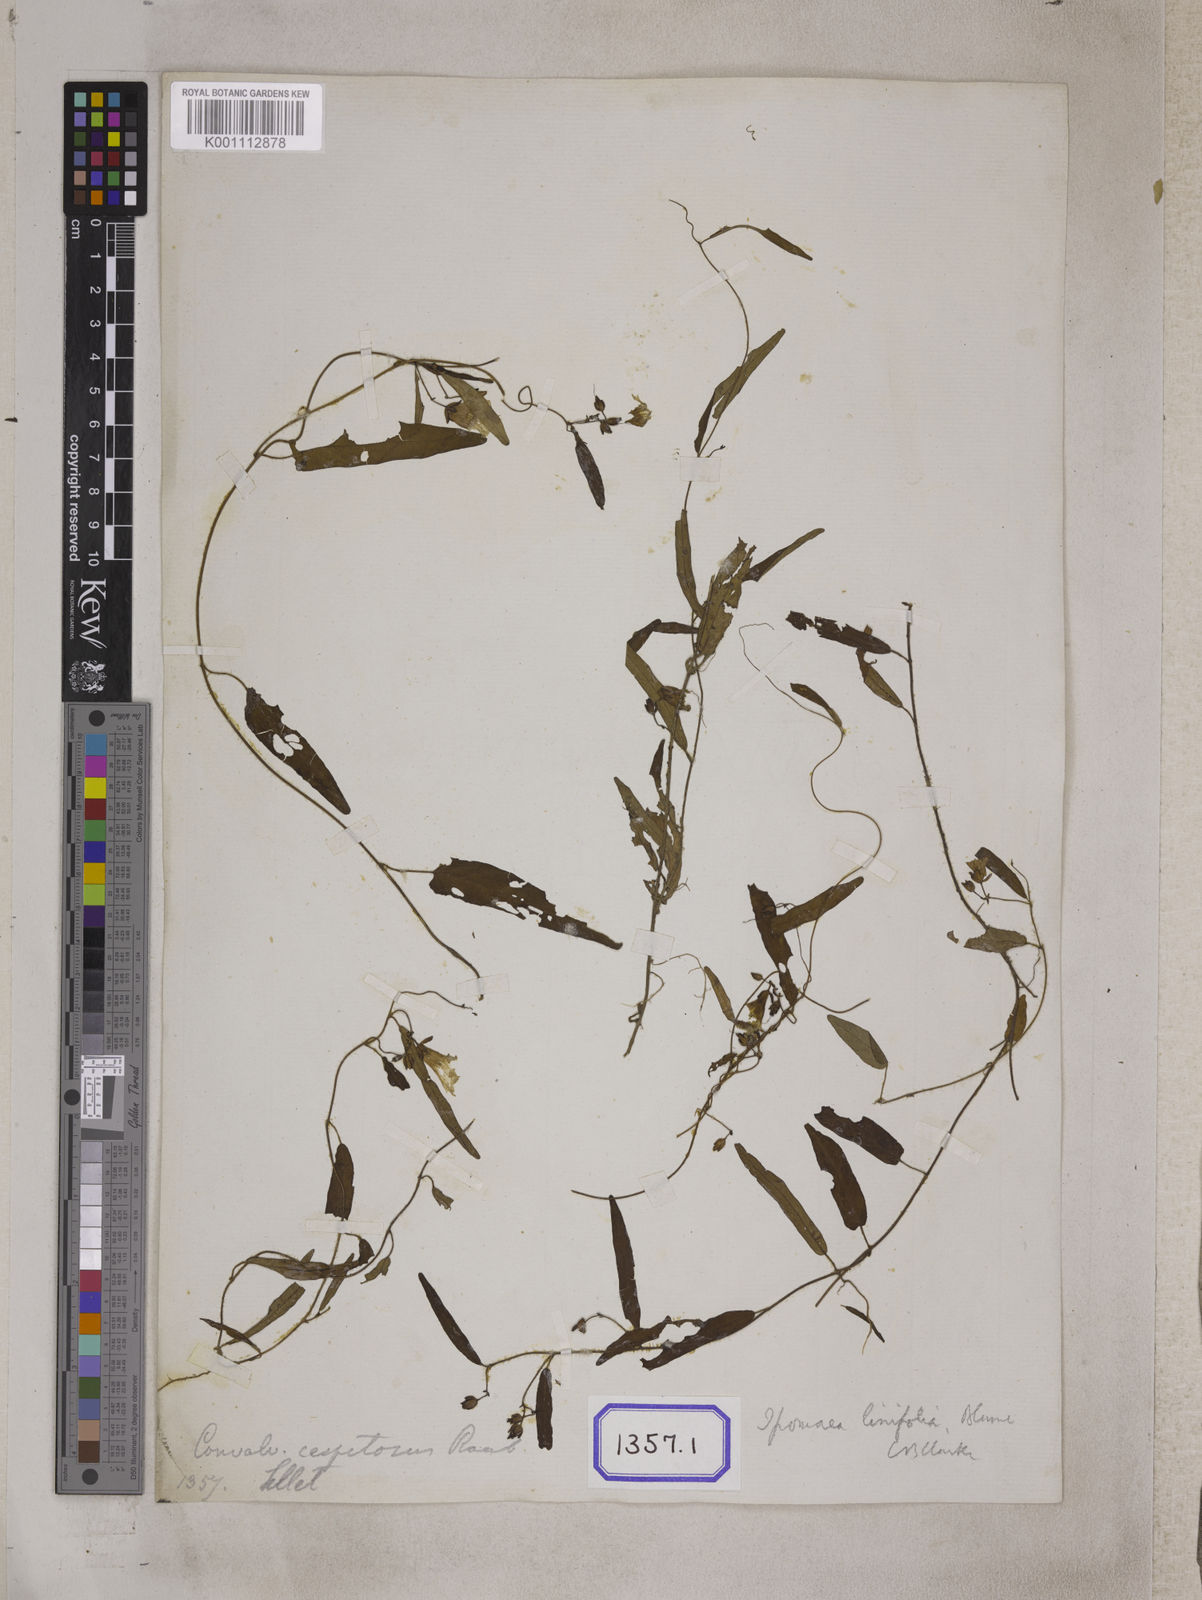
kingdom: Plantae
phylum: Tracheophyta
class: Magnoliopsida
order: Solanales
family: Convolvulaceae
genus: Convolvulus
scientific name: Convolvulus libanoticus
